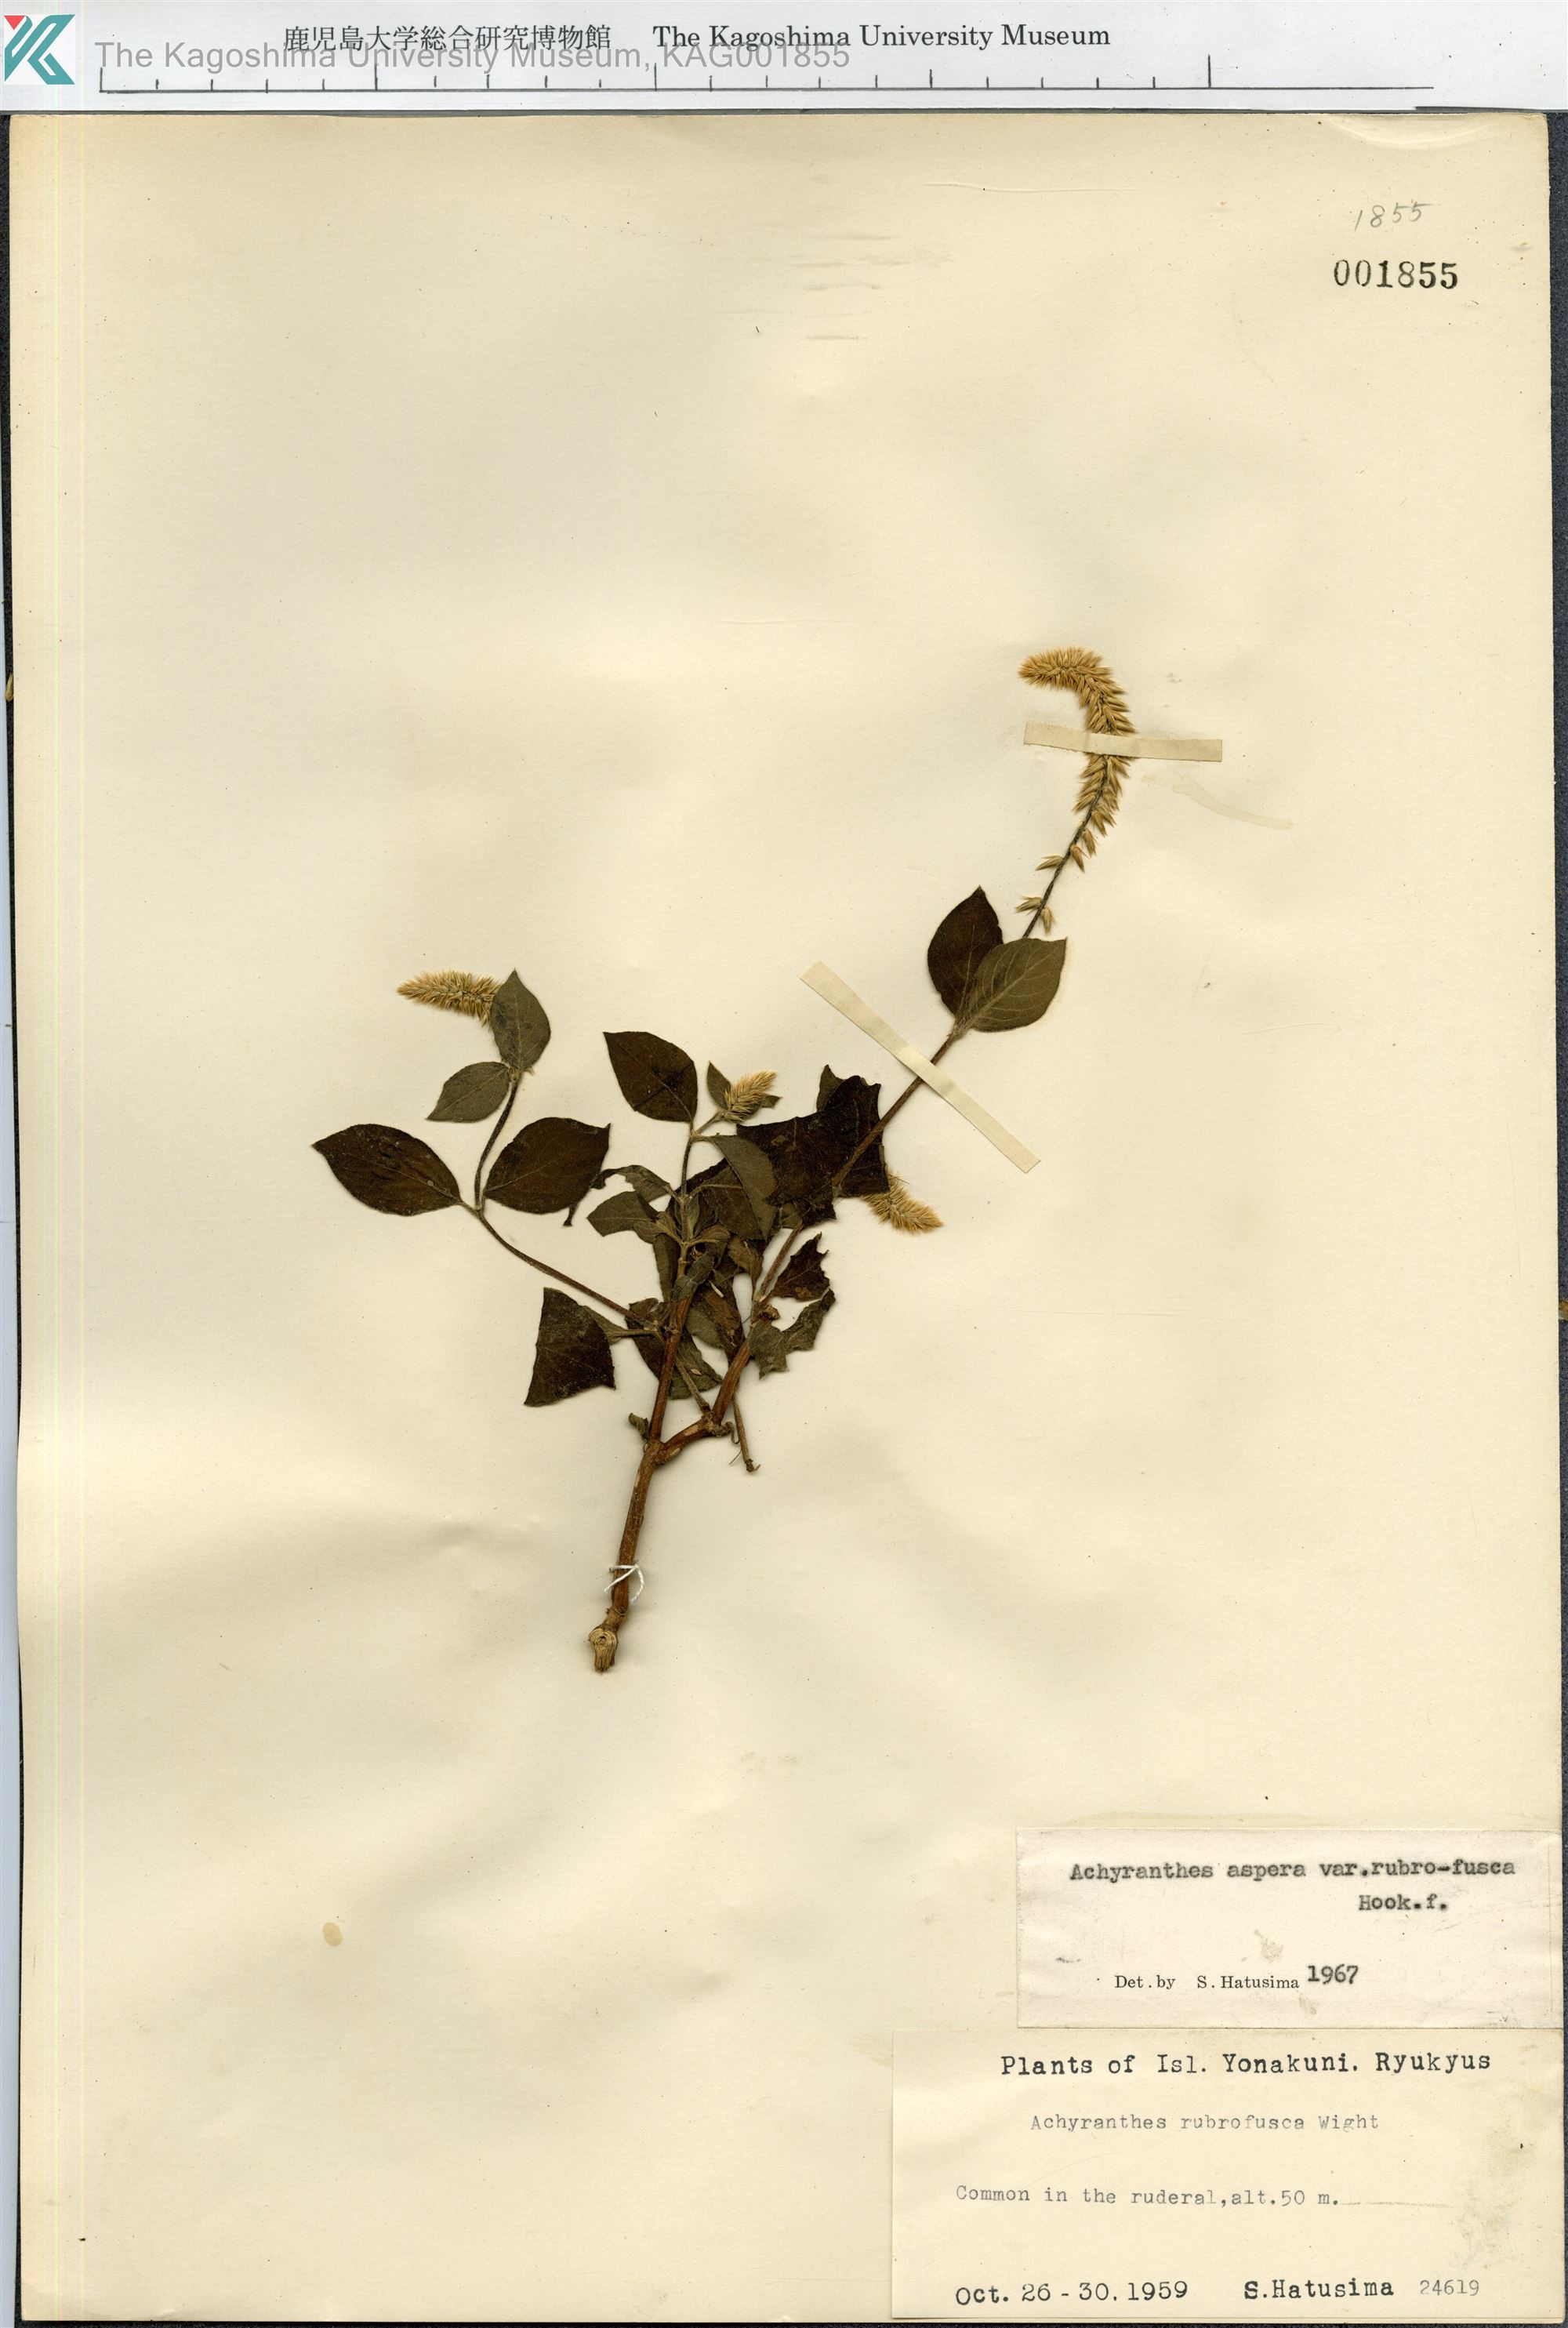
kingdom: Plantae
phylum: Tracheophyta
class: Magnoliopsida
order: Caryophyllales
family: Amaranthaceae
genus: Achyranthes
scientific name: Achyranthes aspera
